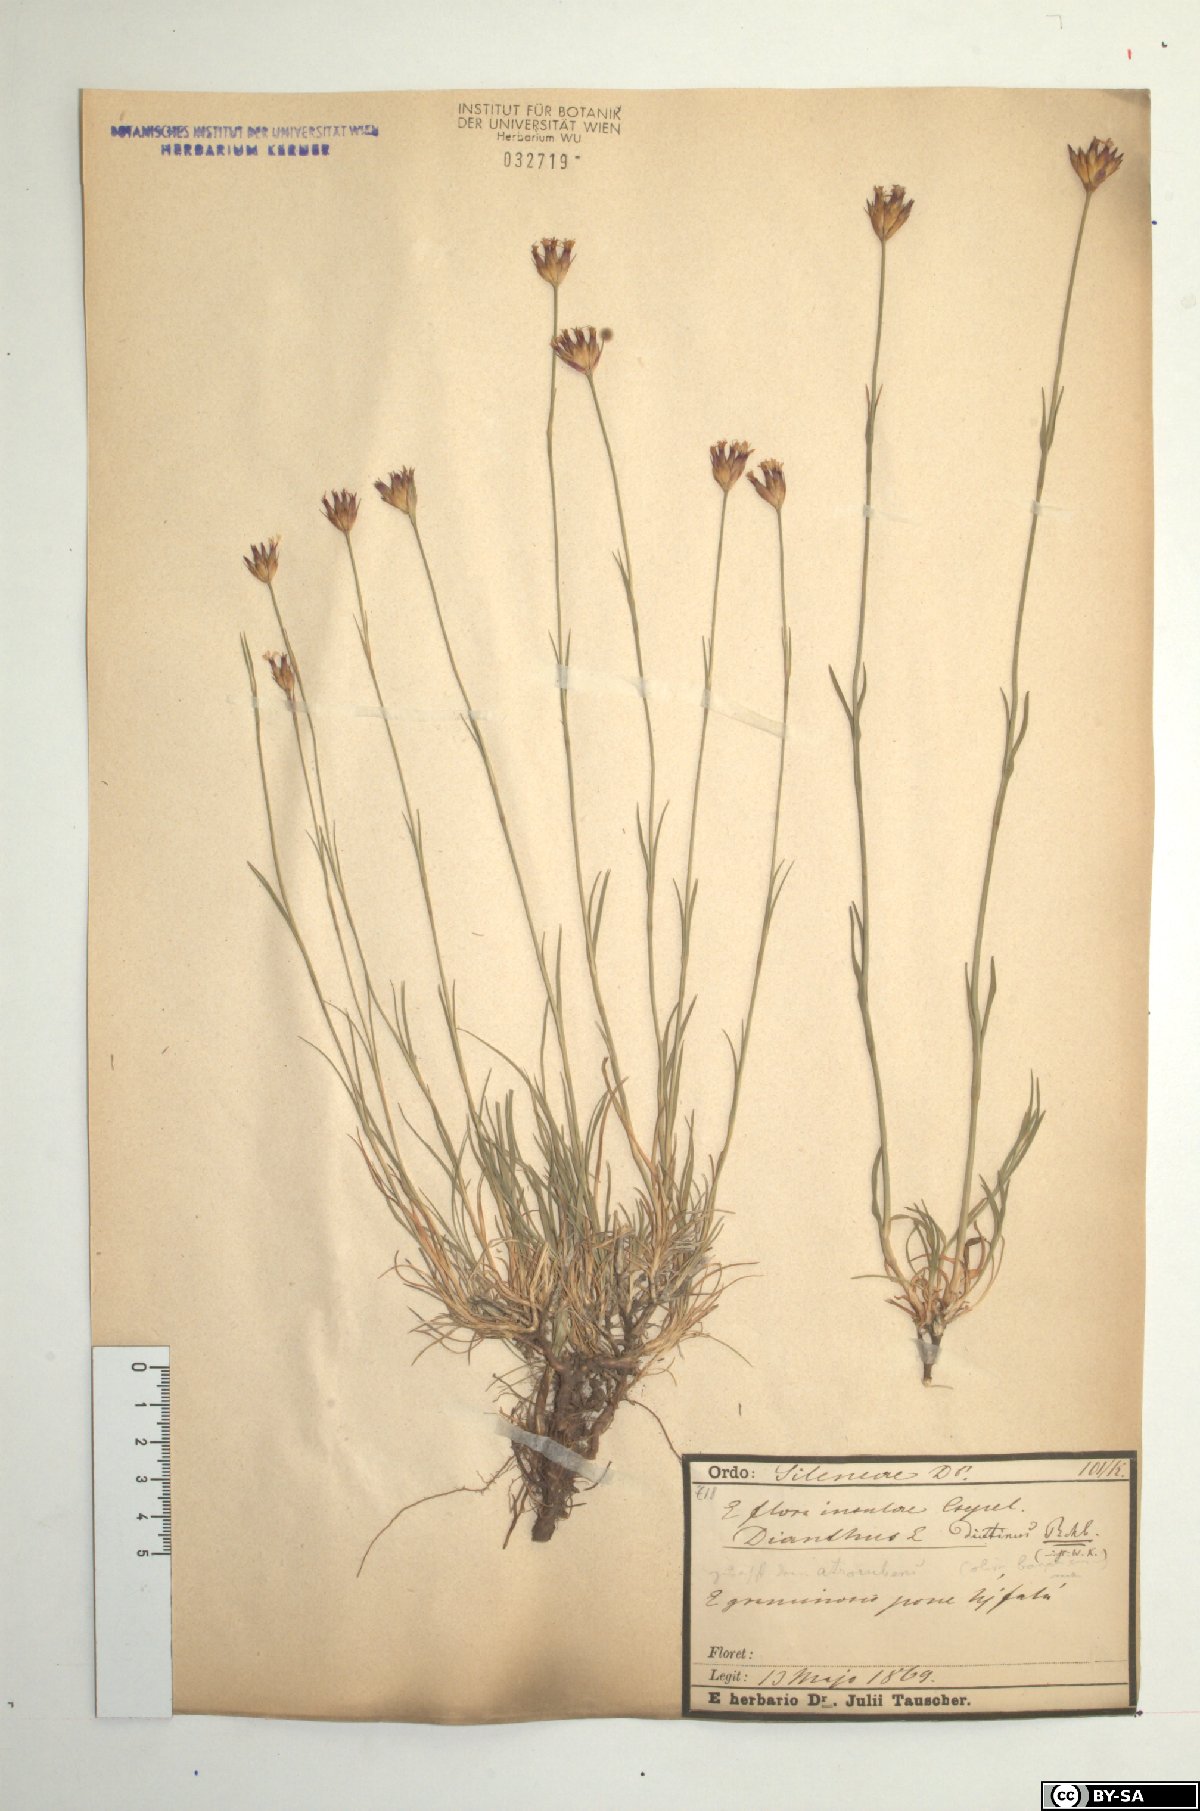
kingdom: Plantae
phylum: Tracheophyta
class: Magnoliopsida
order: Caryophyllales
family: Caryophyllaceae
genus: Dianthus
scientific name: Dianthus carthusianorum
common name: Carthusian pink
